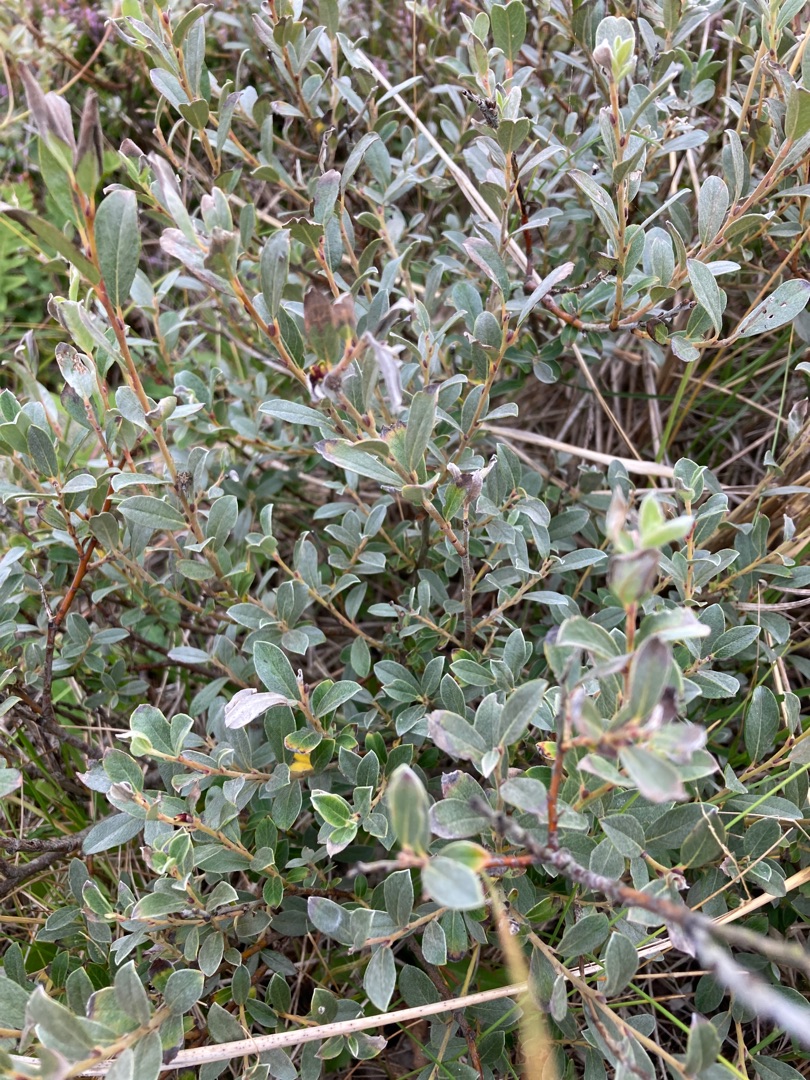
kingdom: Plantae
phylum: Tracheophyta
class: Magnoliopsida
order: Malpighiales
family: Salicaceae
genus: Salix
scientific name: Salix repens
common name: Gråris
